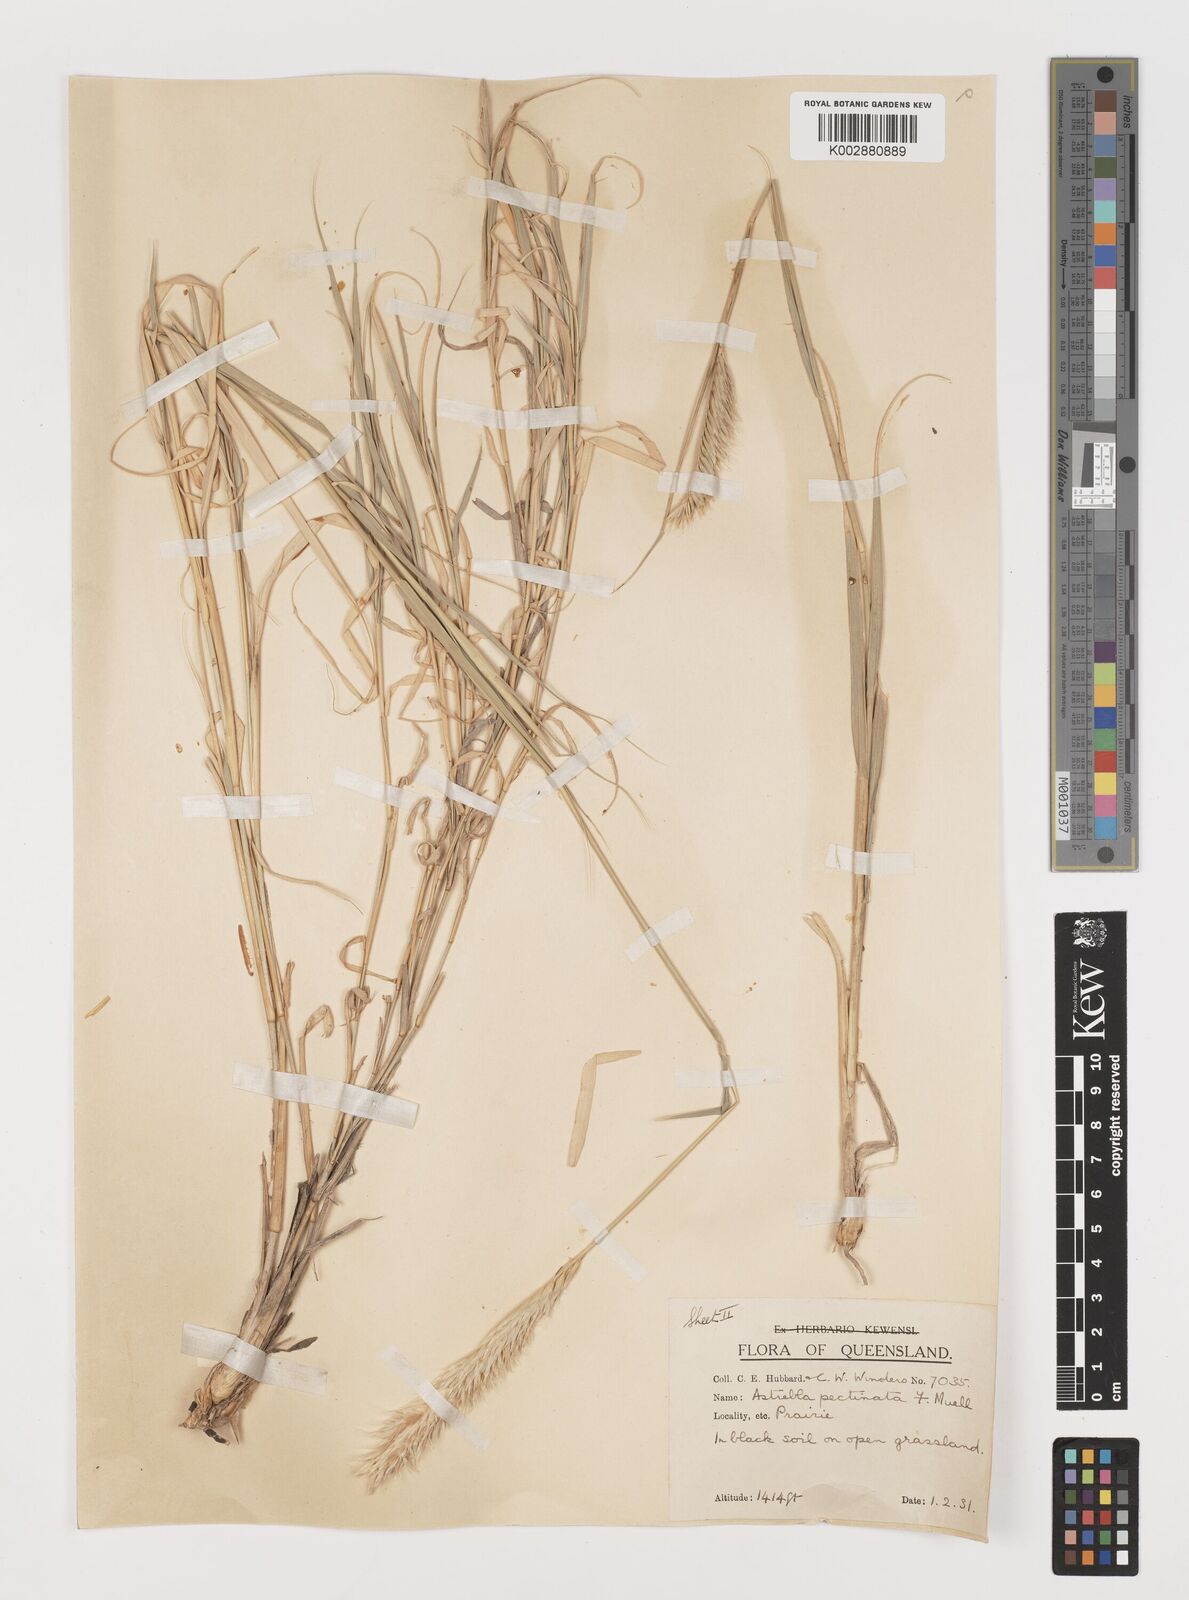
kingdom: Plantae
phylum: Tracheophyta
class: Liliopsida
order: Poales
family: Poaceae
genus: Astrebla
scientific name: Astrebla pectinata
